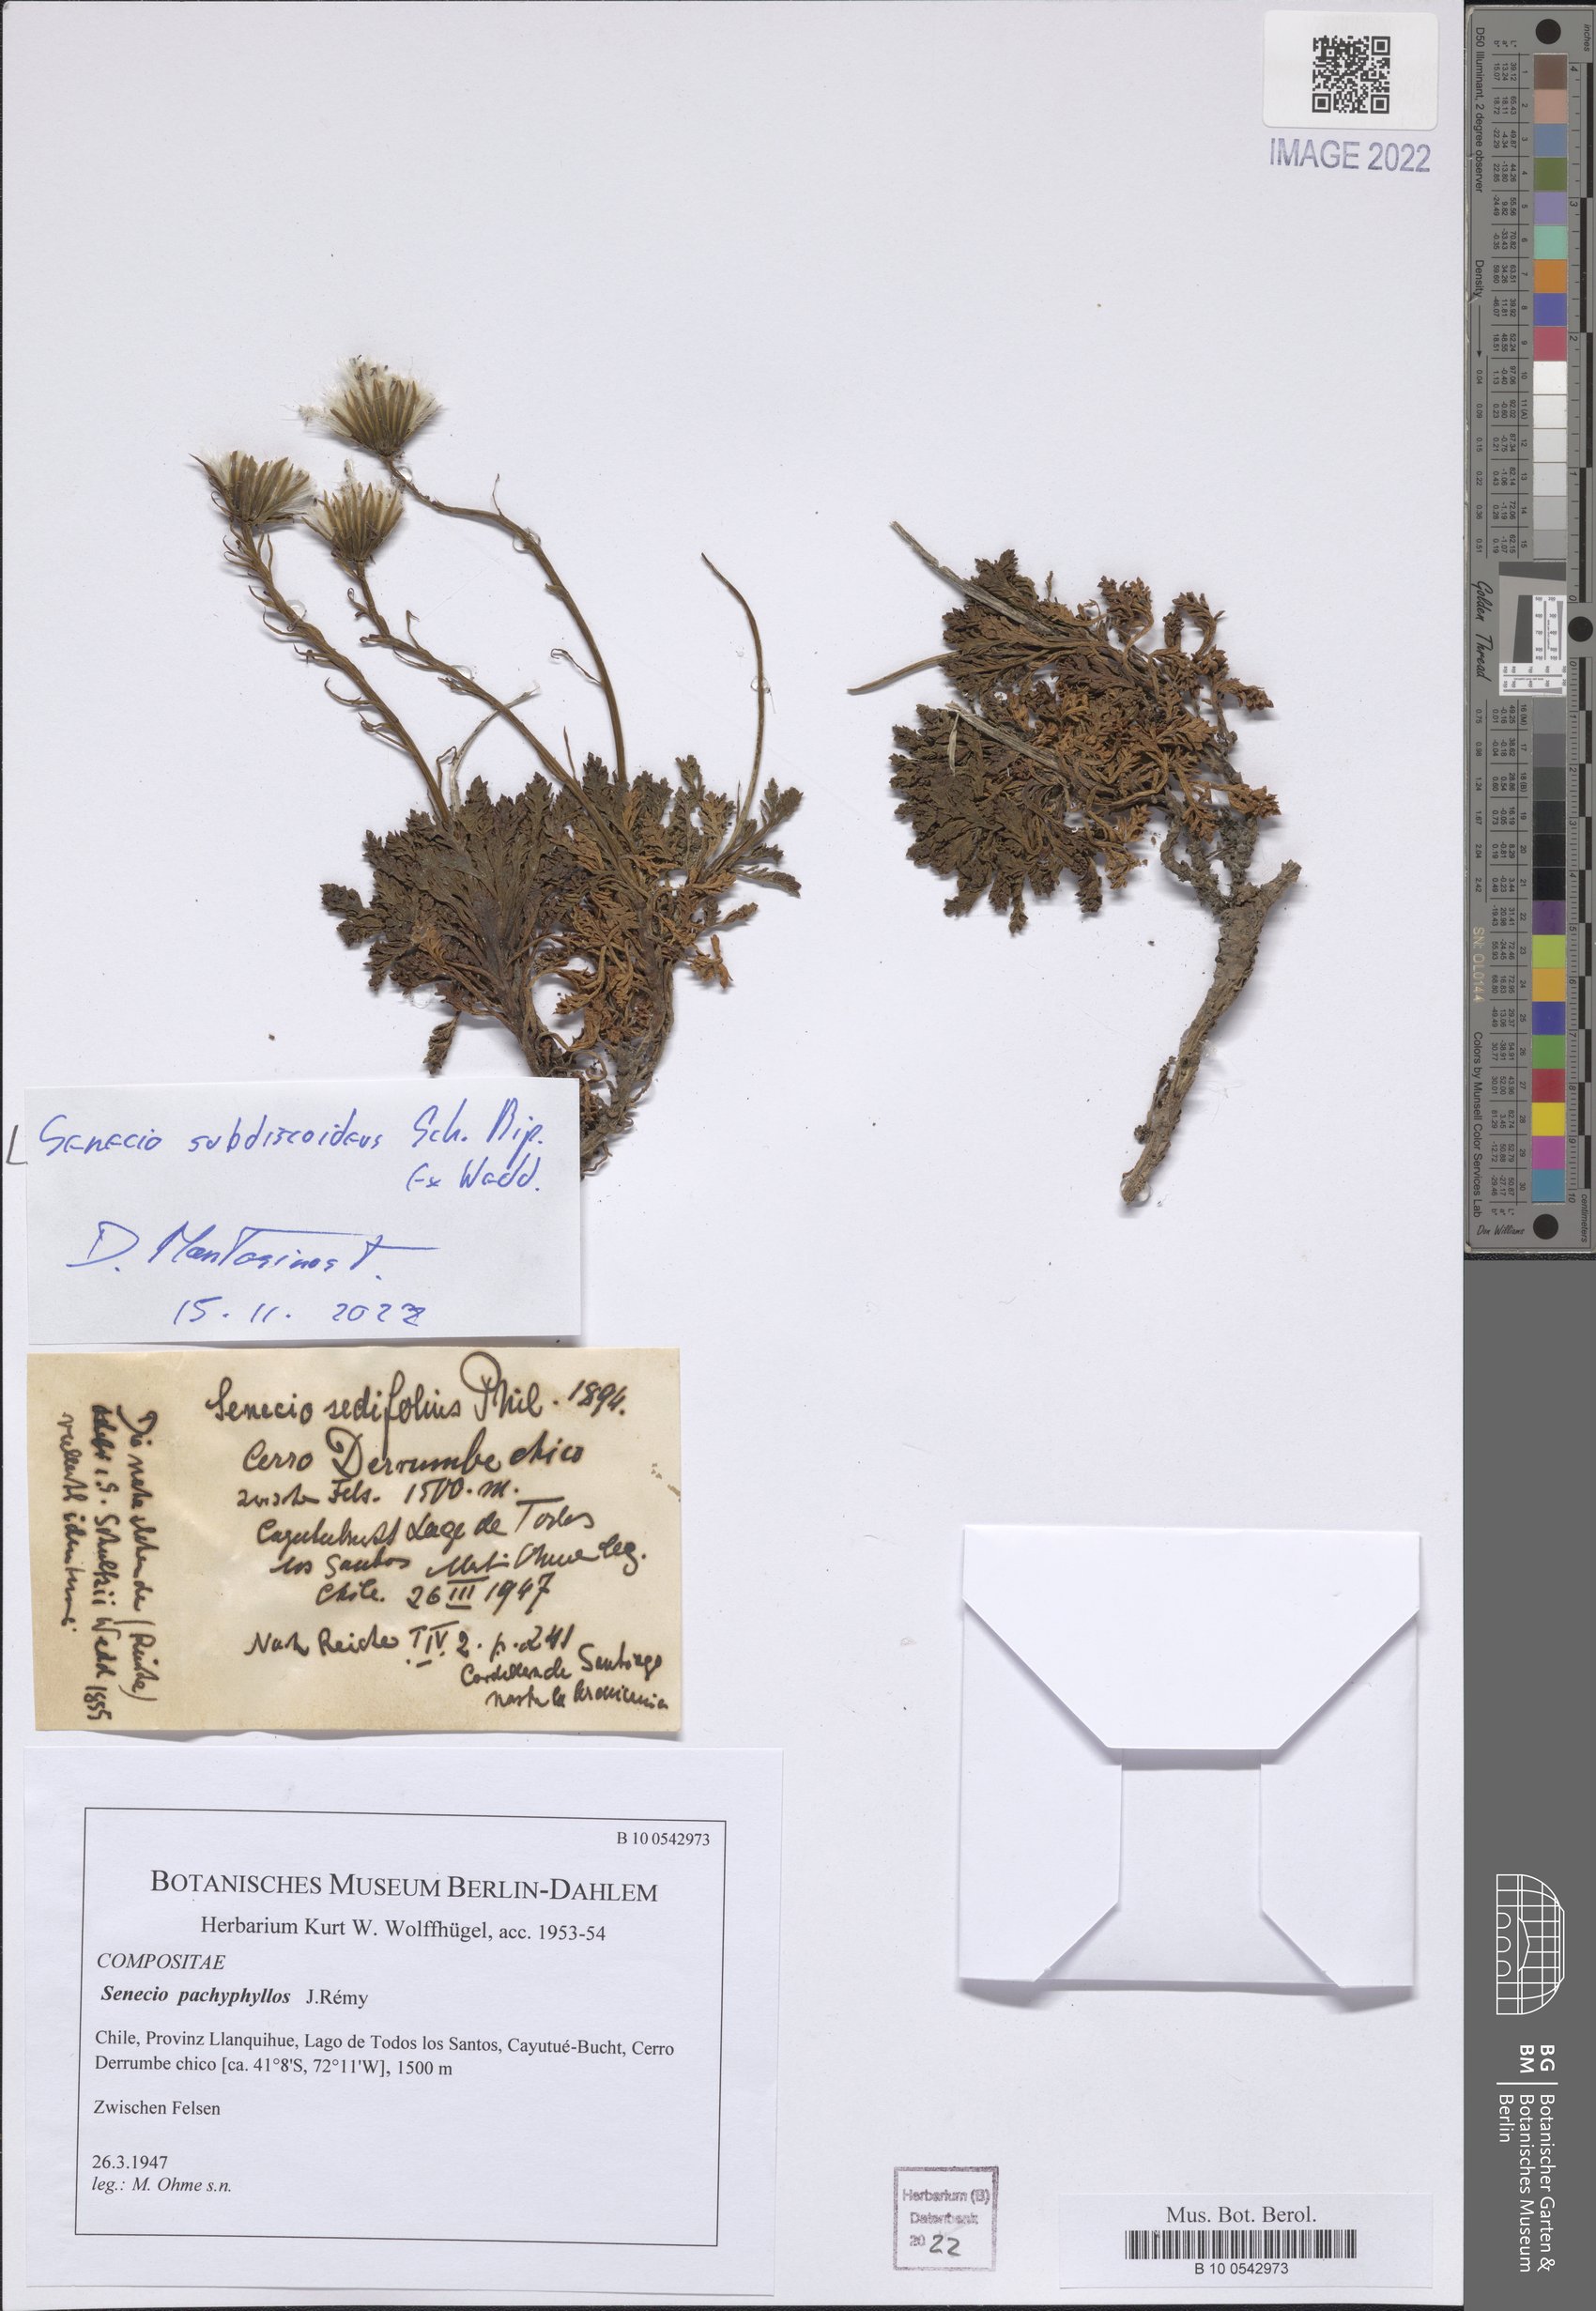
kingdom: Plantae
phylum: Tracheophyta
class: Magnoliopsida
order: Asterales
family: Asteraceae
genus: Senecio
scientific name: Senecio kingii
